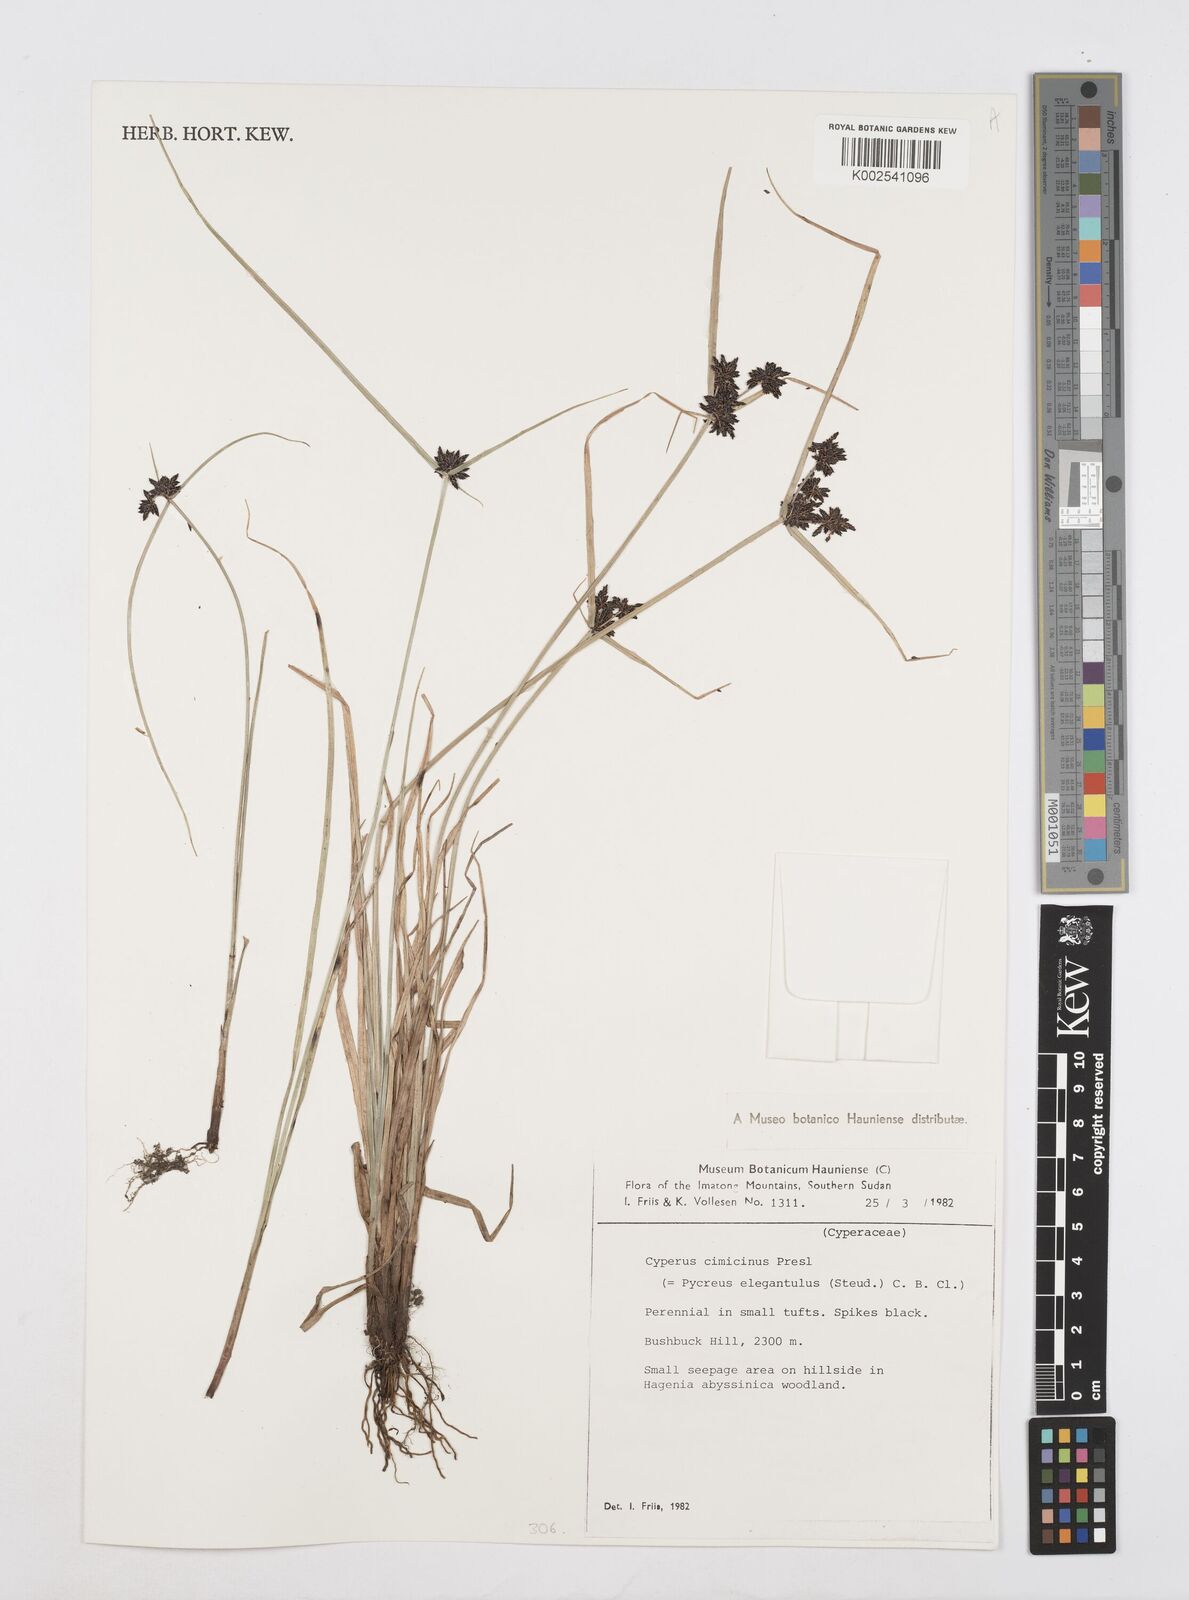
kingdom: Plantae
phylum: Tracheophyta
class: Liliopsida
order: Poales
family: Cyperaceae
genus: Cyperus
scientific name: Cyperus elegantulus
